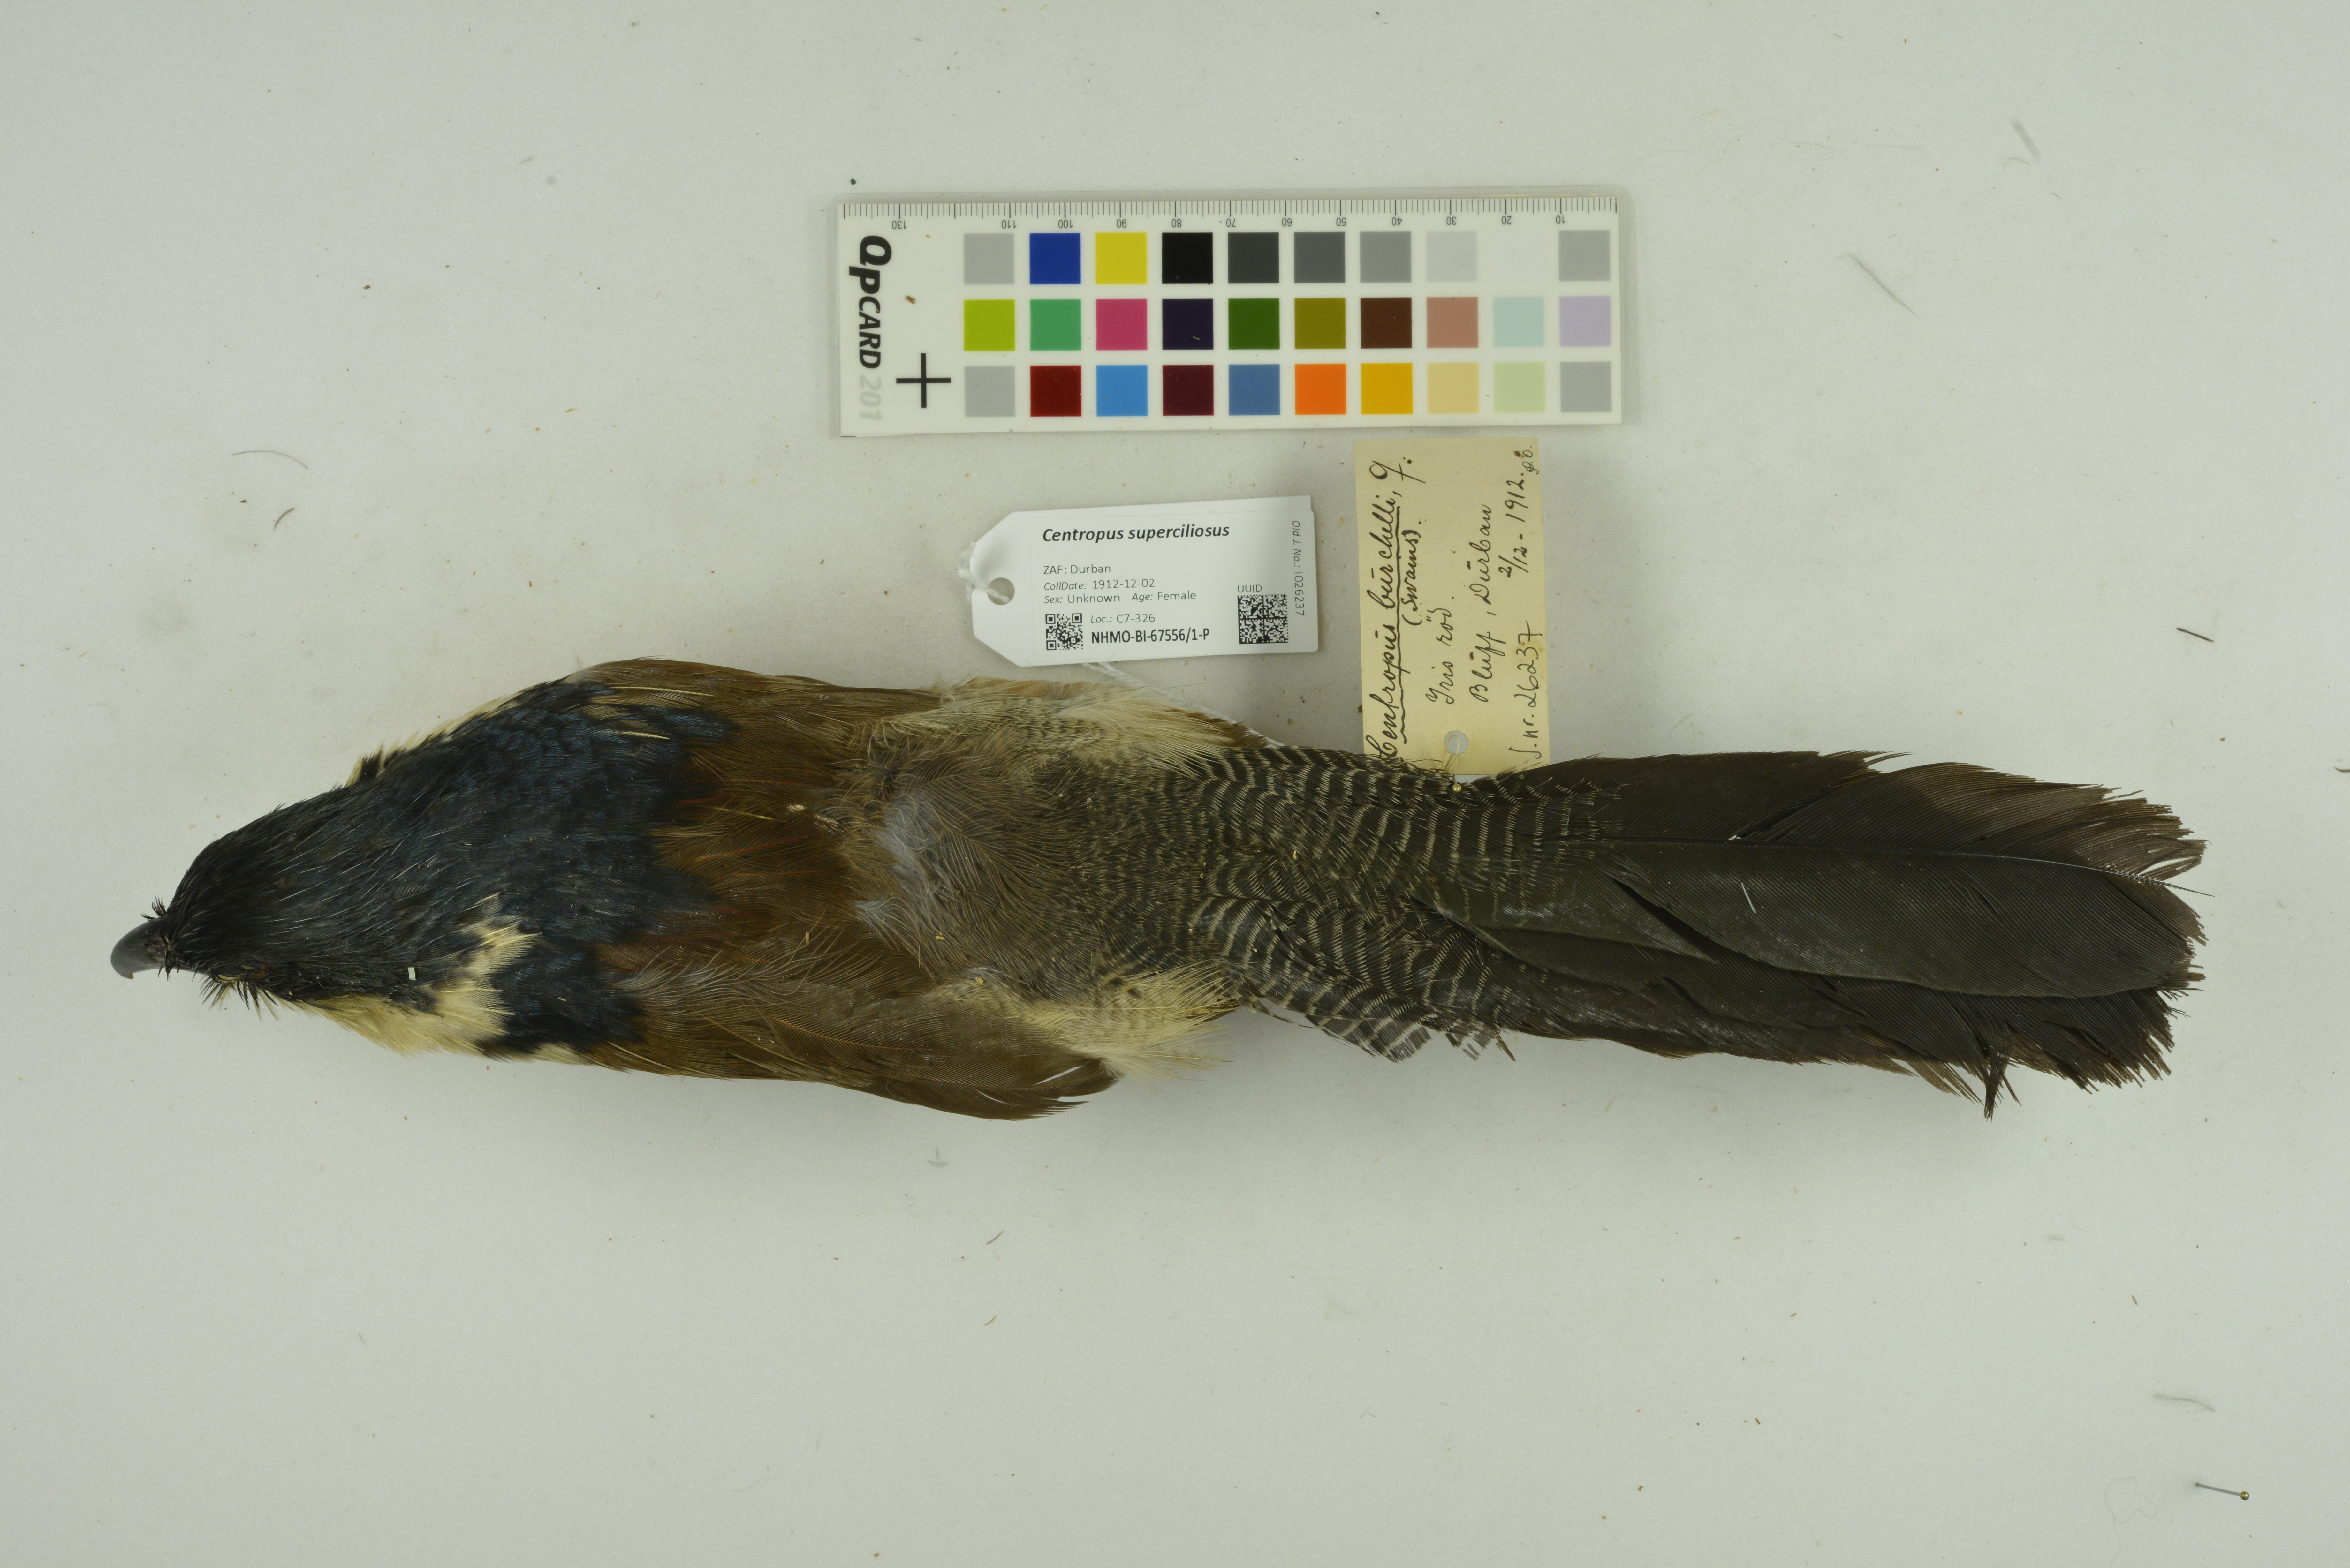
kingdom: Animalia
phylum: Chordata
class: Aves
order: Cuculiformes
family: Cuculidae
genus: Centropus
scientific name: Centropus superciliosus
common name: White-browed coucal
